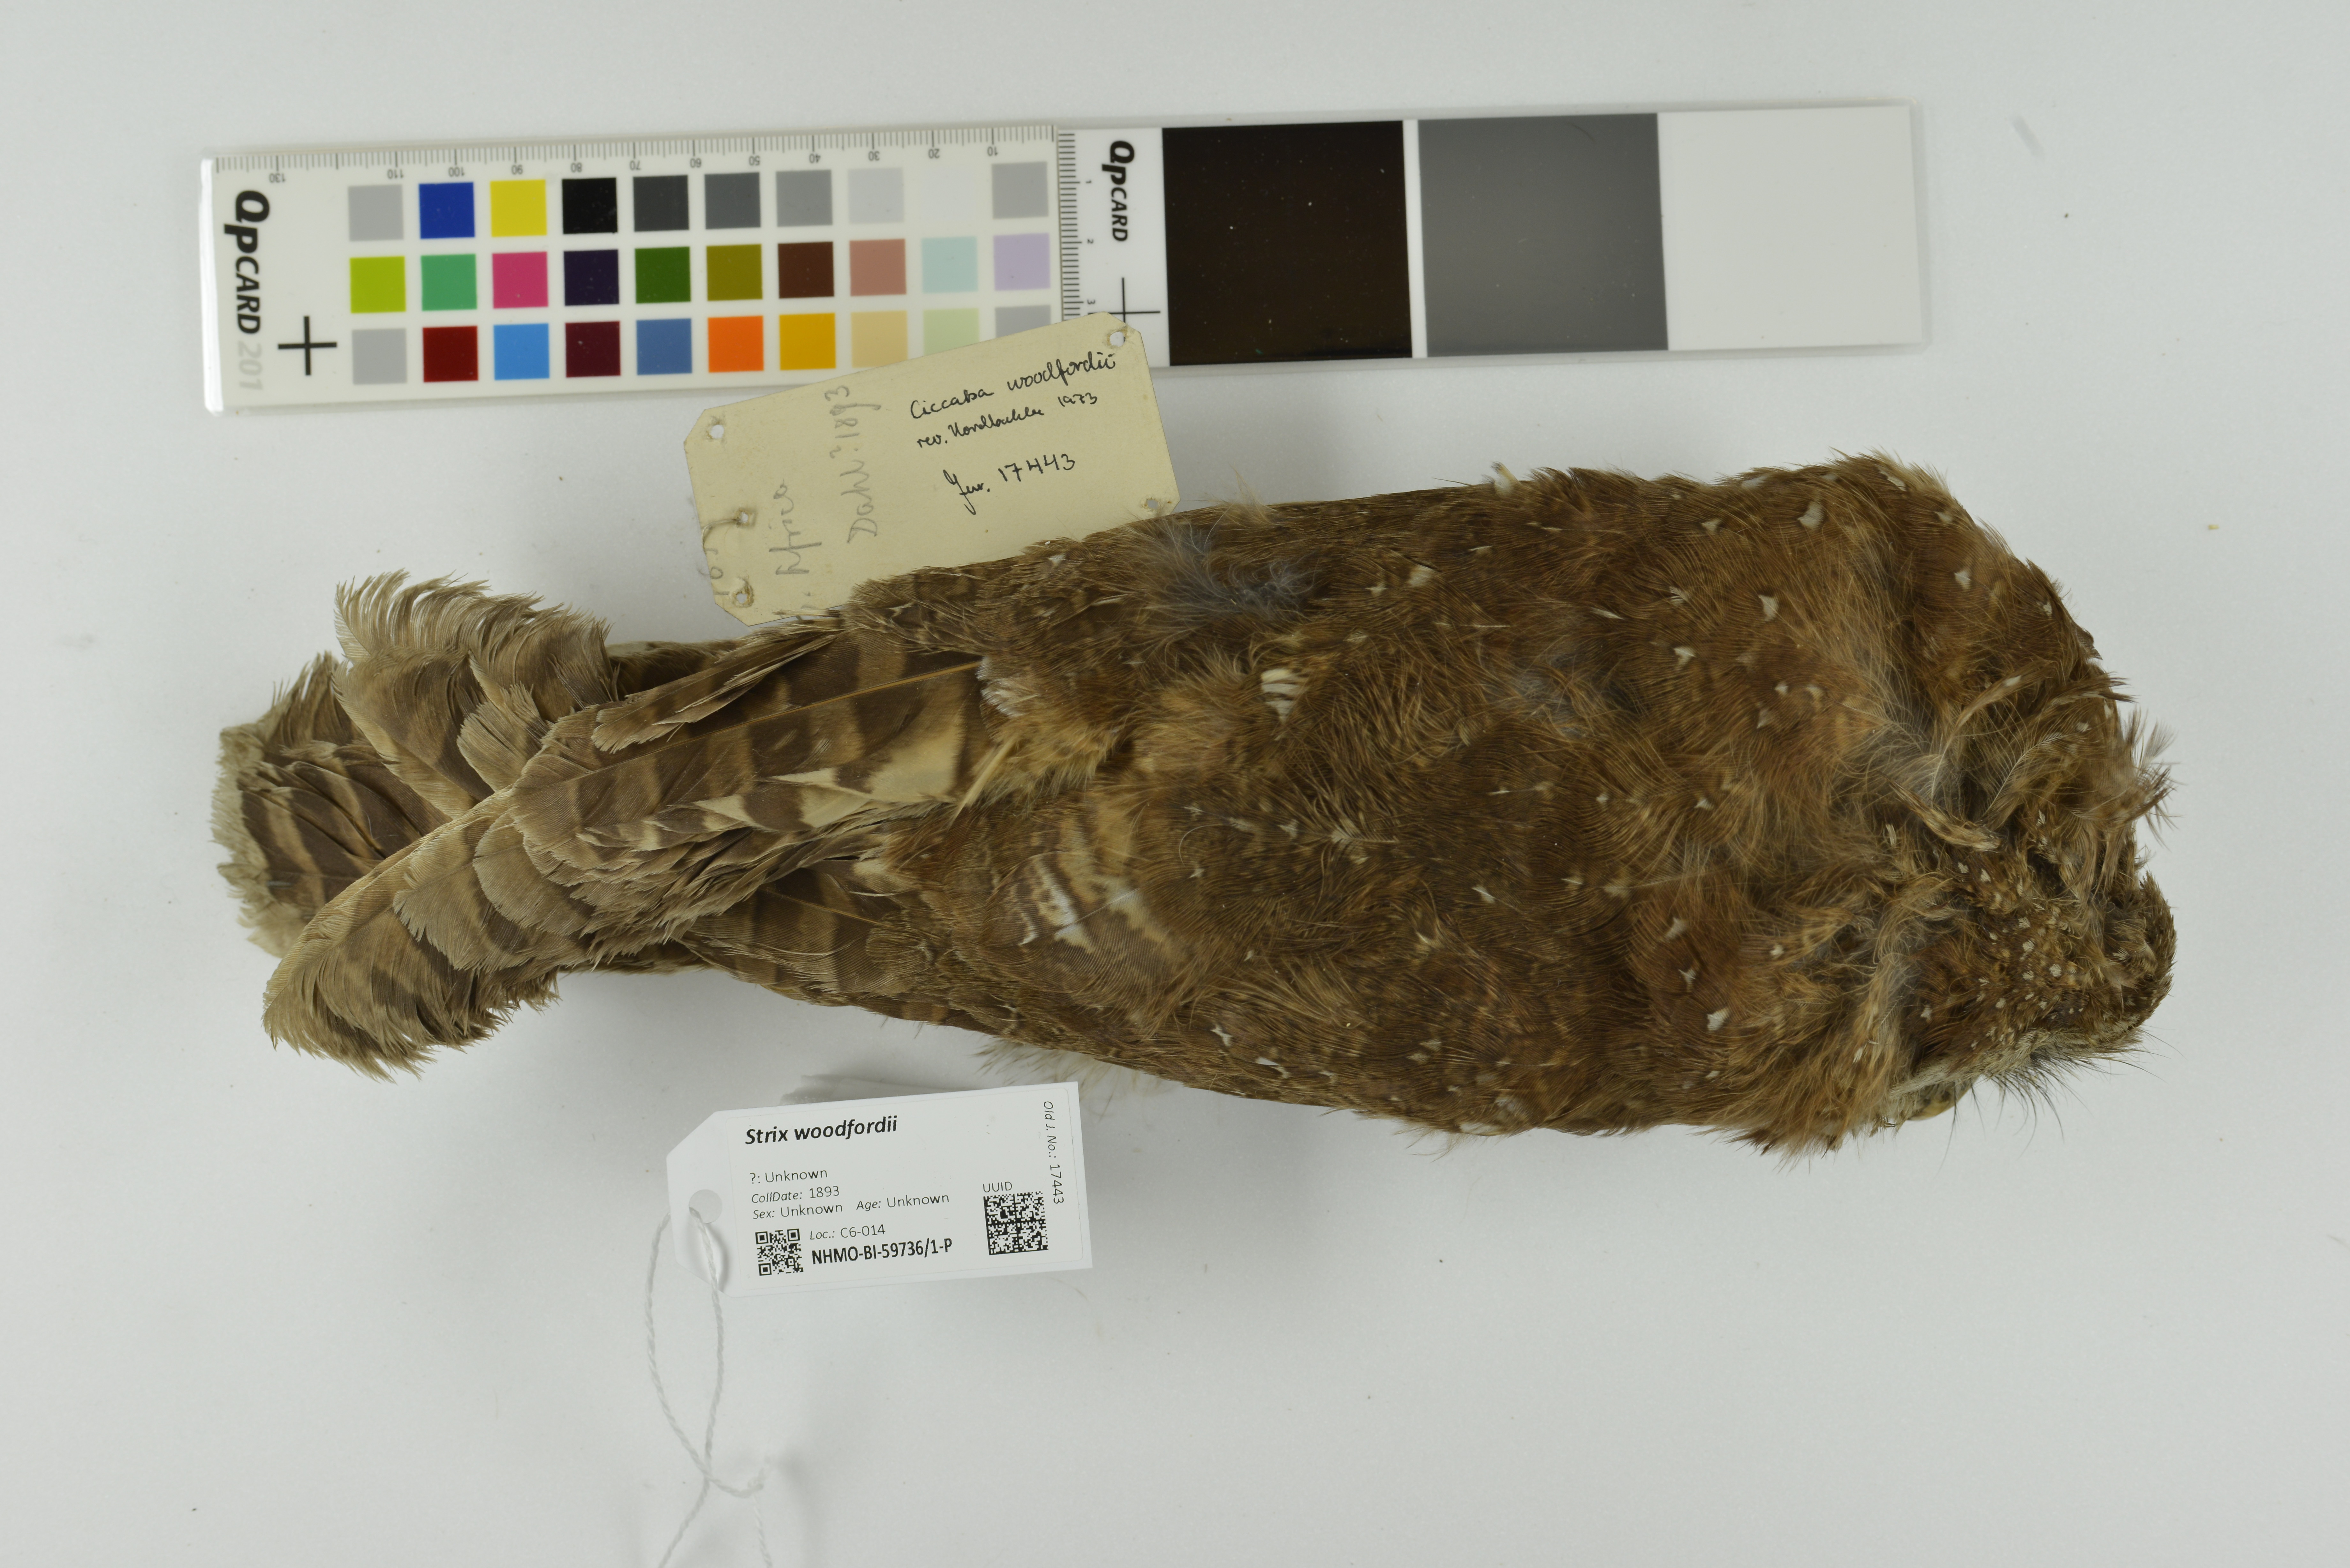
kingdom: Animalia
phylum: Chordata
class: Aves
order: Strigiformes
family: Strigidae
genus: Strix
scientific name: Strix woodfordii
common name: African wood owl
